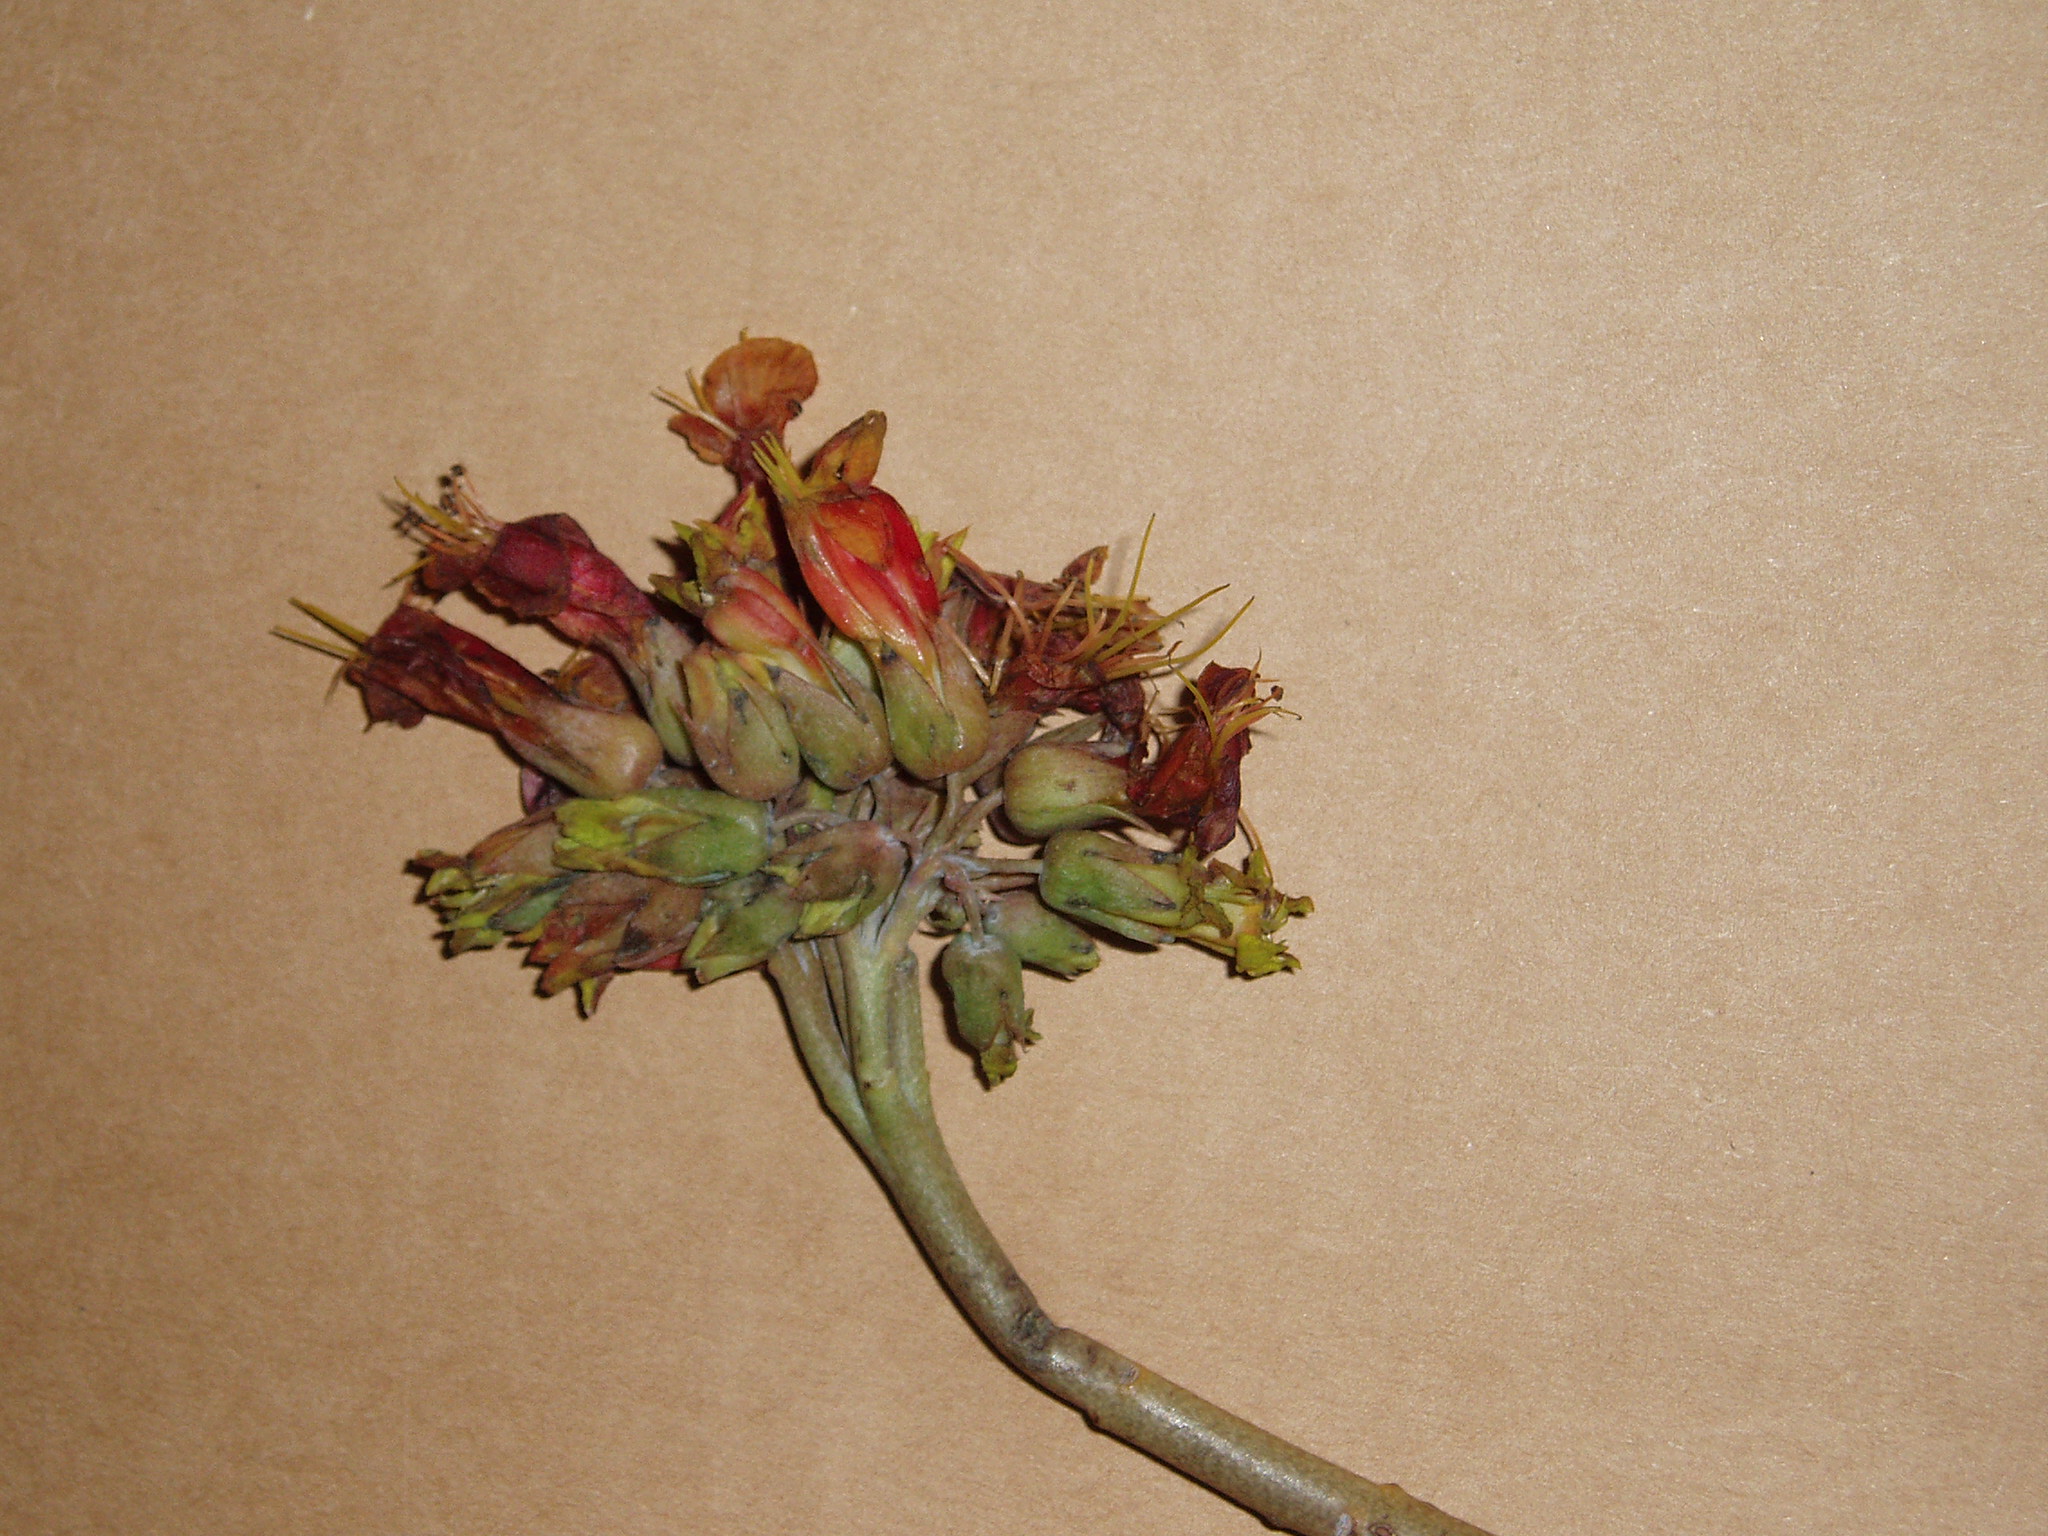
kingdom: Plantae
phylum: Tracheophyta
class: Magnoliopsida
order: Saxifragales
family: Crassulaceae
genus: Kalanchoe
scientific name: Kalanchoe delagoensis
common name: Chandelier plant
